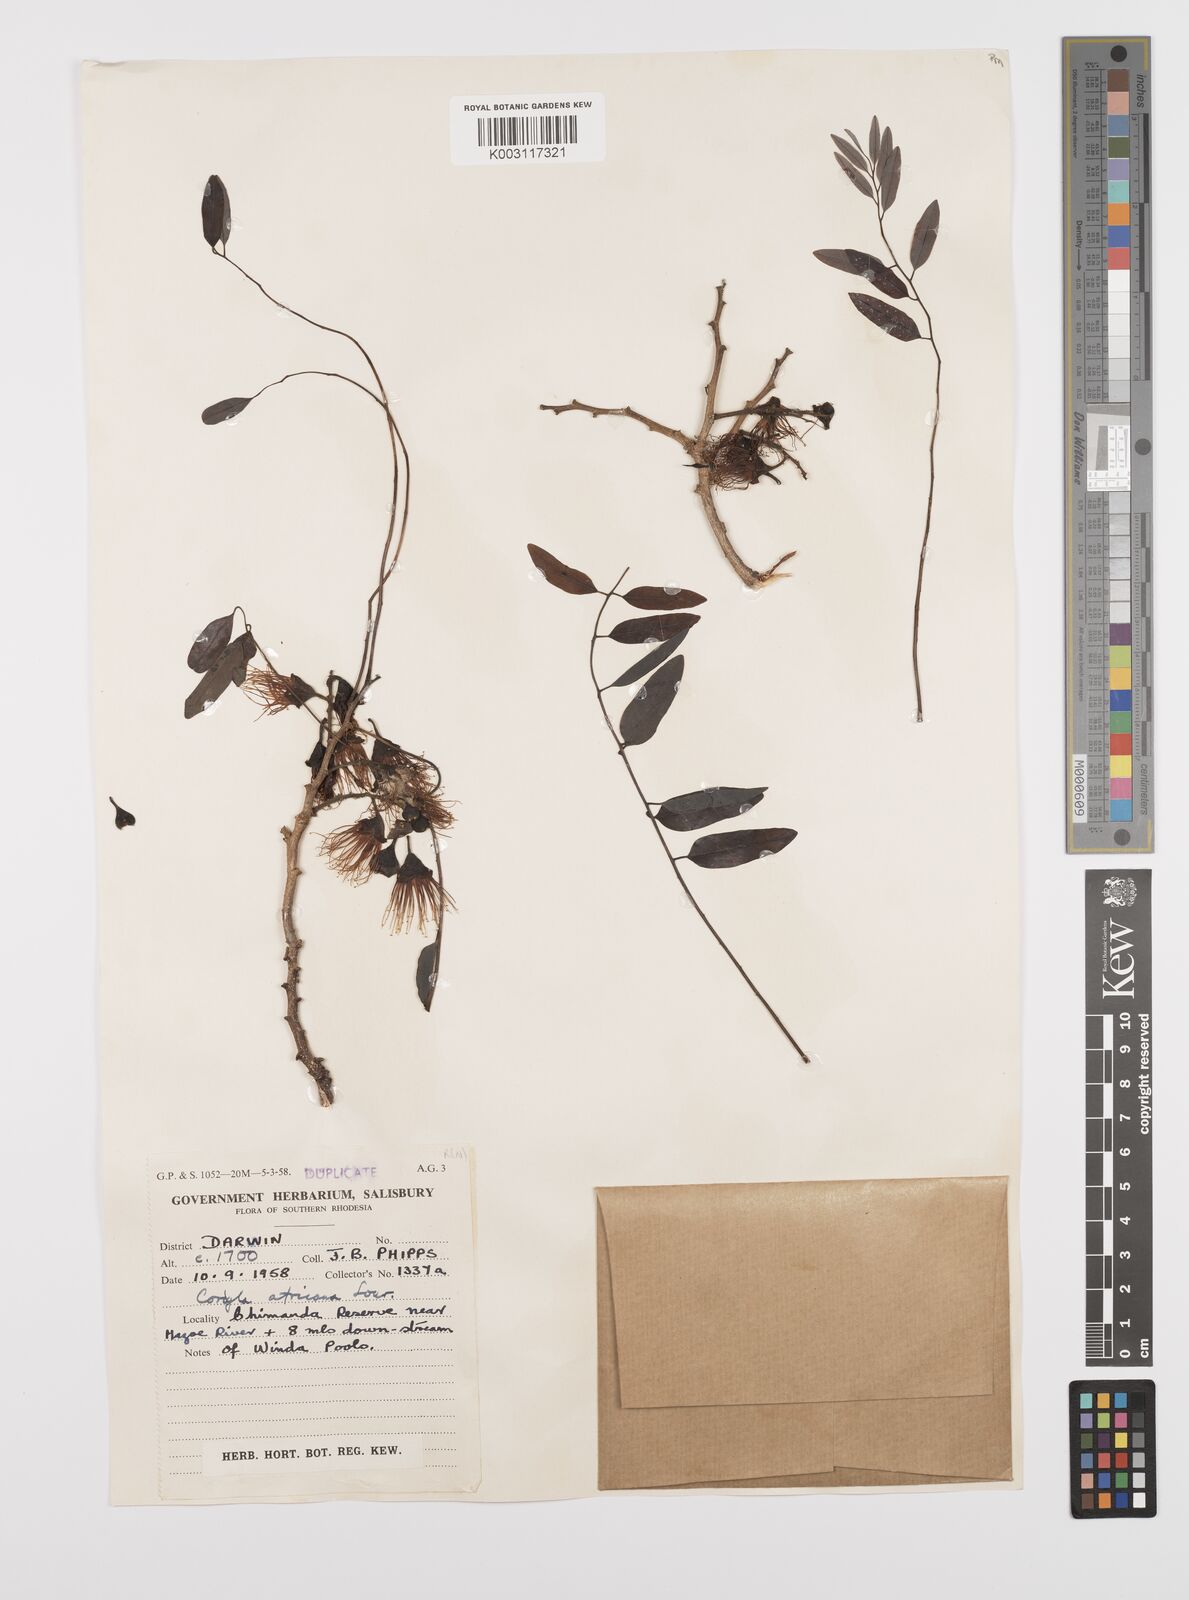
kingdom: Plantae
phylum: Tracheophyta
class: Magnoliopsida
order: Fabales
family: Fabaceae
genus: Cordyla
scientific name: Cordyla africana
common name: Wild mango
